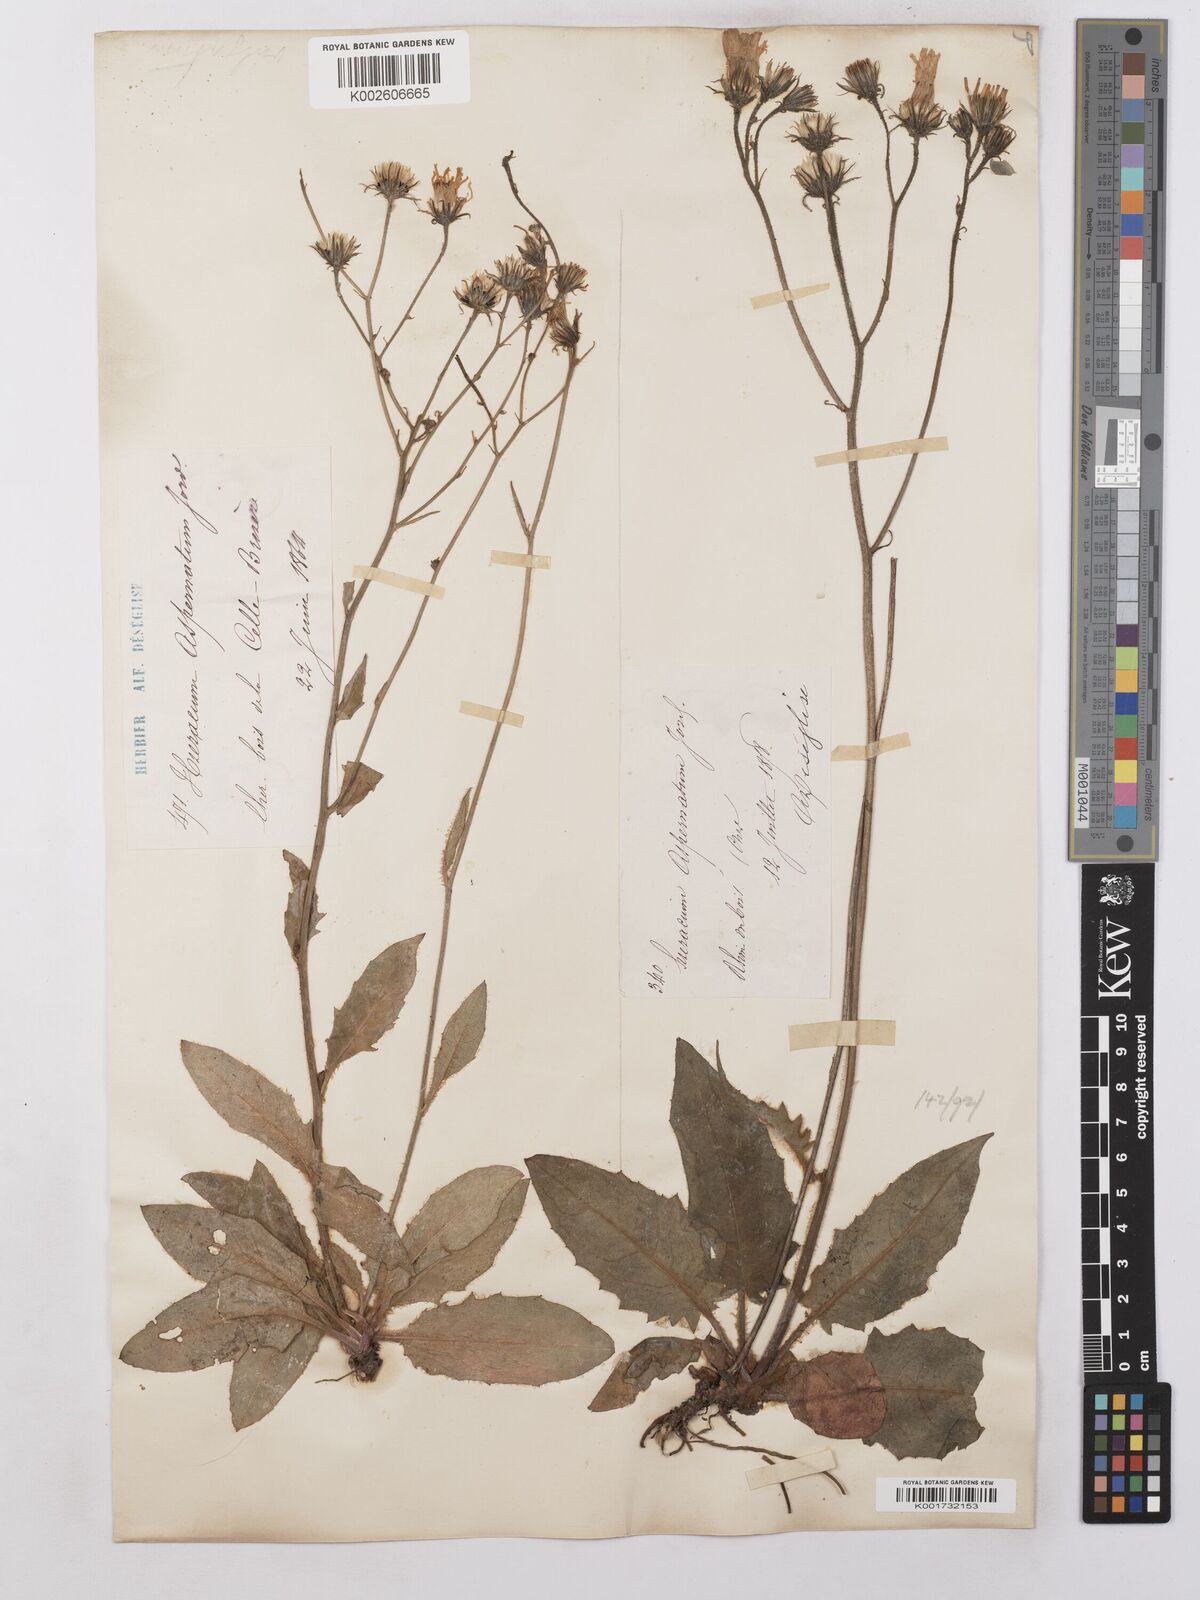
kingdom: Plantae
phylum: Tracheophyta
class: Magnoliopsida
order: Asterales
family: Asteraceae
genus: Hieracium
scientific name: Hieracium lachenalii
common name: Common hawkweed
